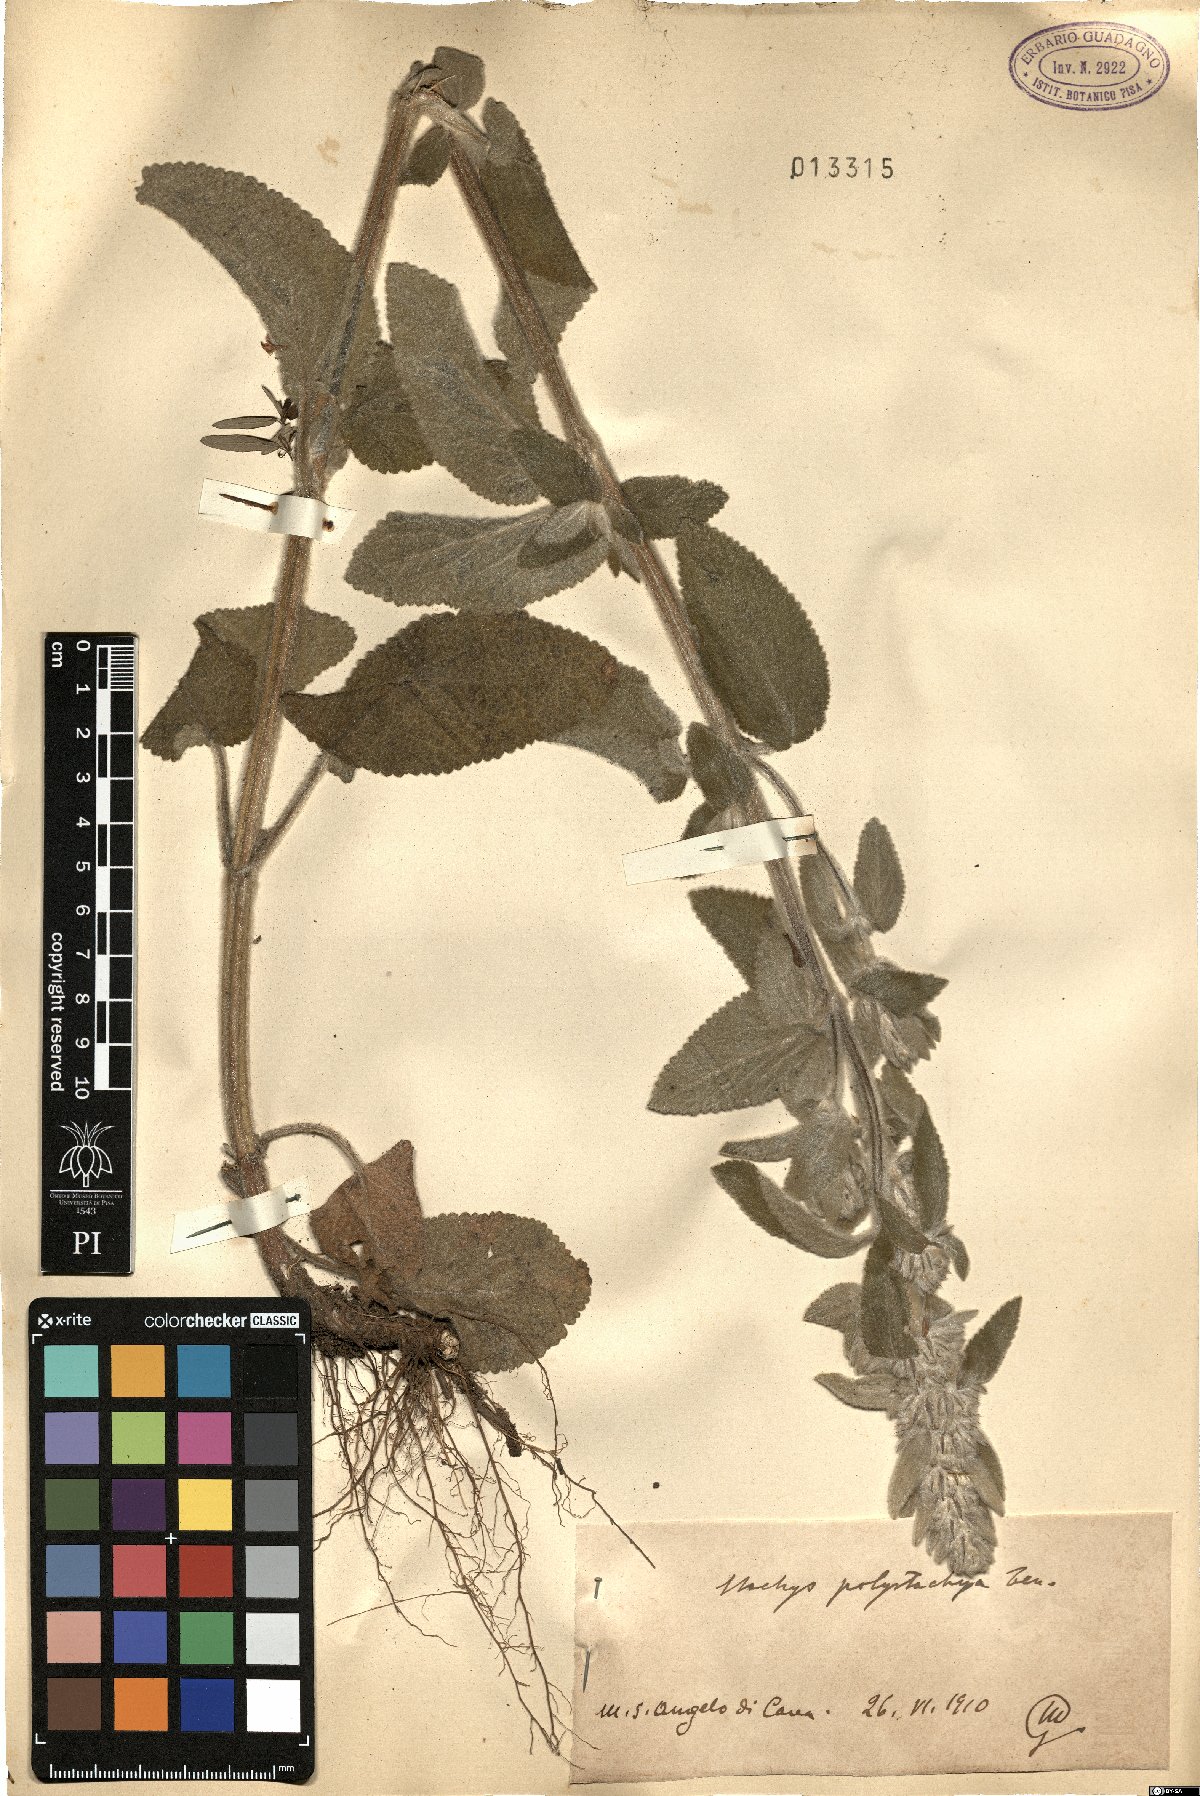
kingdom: Plantae
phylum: Tracheophyta
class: Magnoliopsida
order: Lamiales
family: Lamiaceae
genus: Stachys
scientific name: Stachys germanica
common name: Downy woundwort
